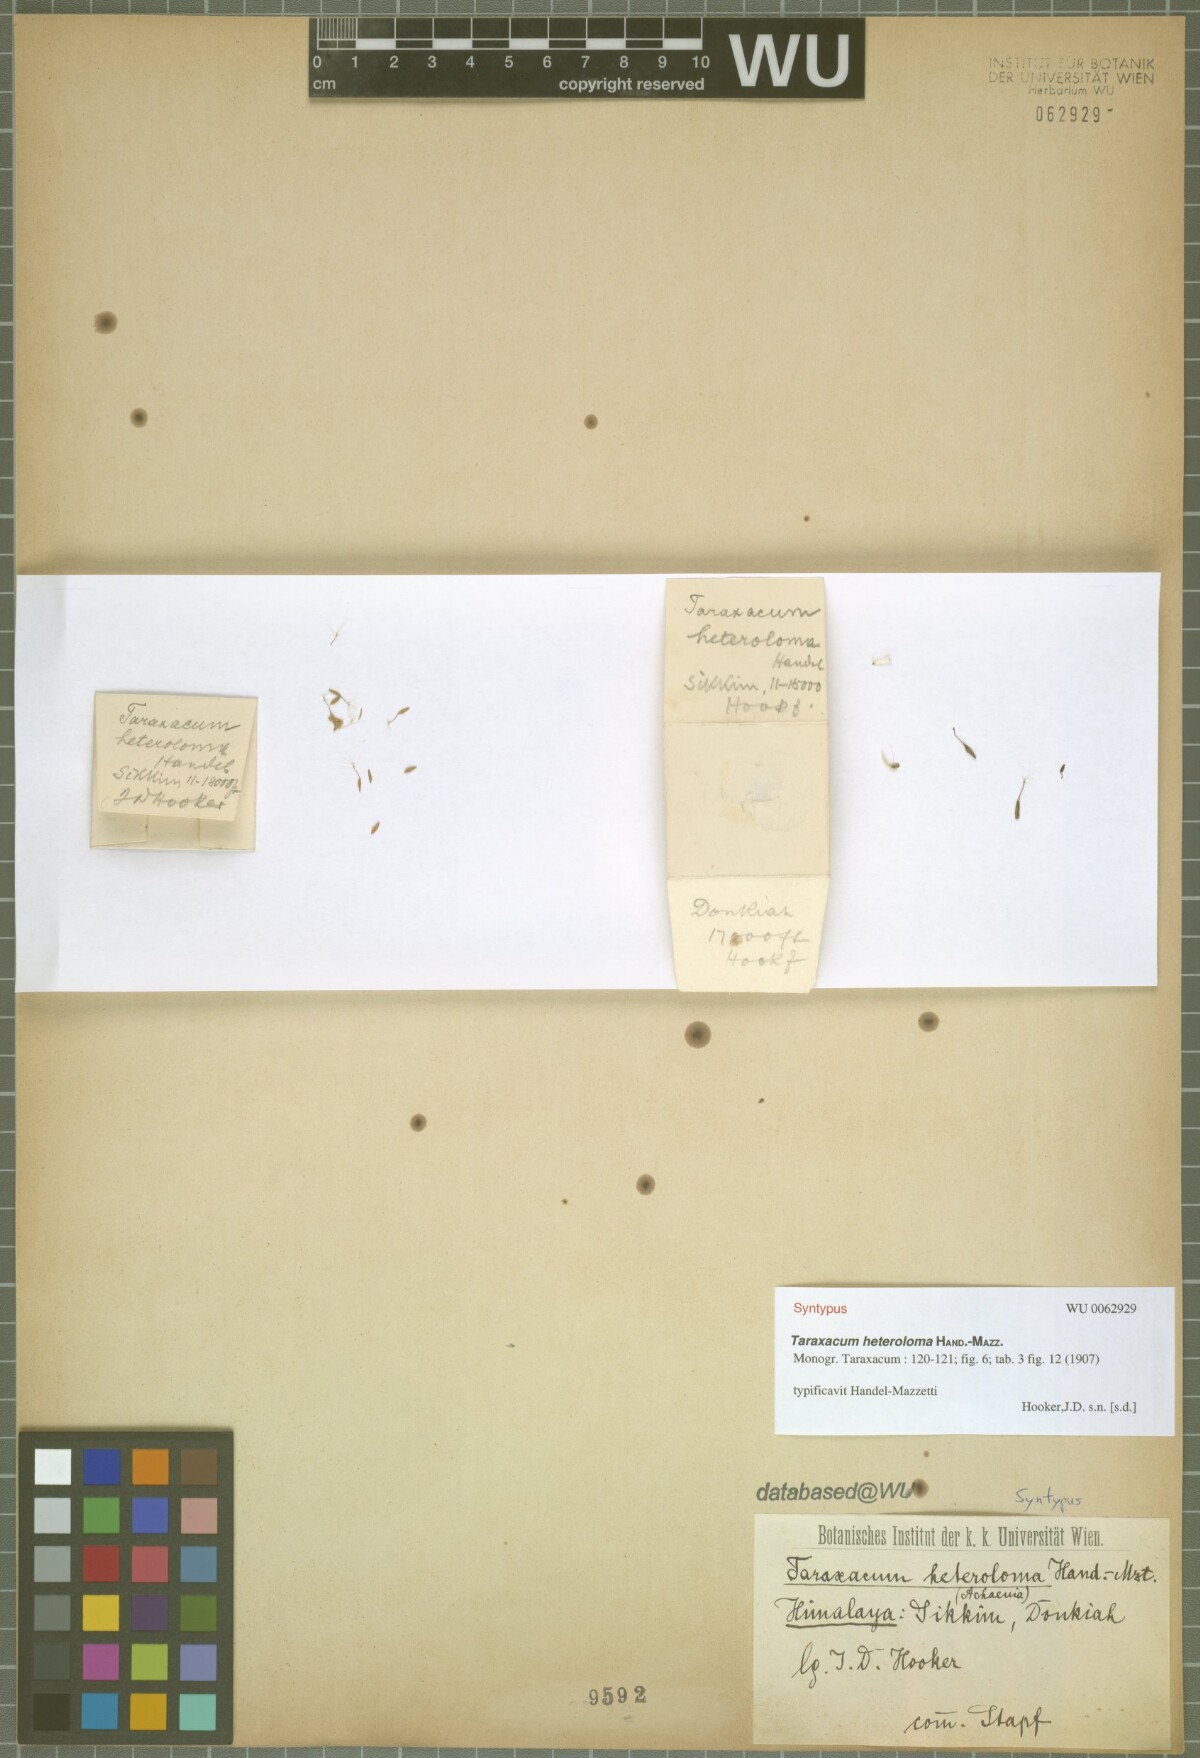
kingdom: Plantae
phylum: Tracheophyta
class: Magnoliopsida
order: Asterales
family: Asteraceae
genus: Taraxacum
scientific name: Taraxacum heteroloma
